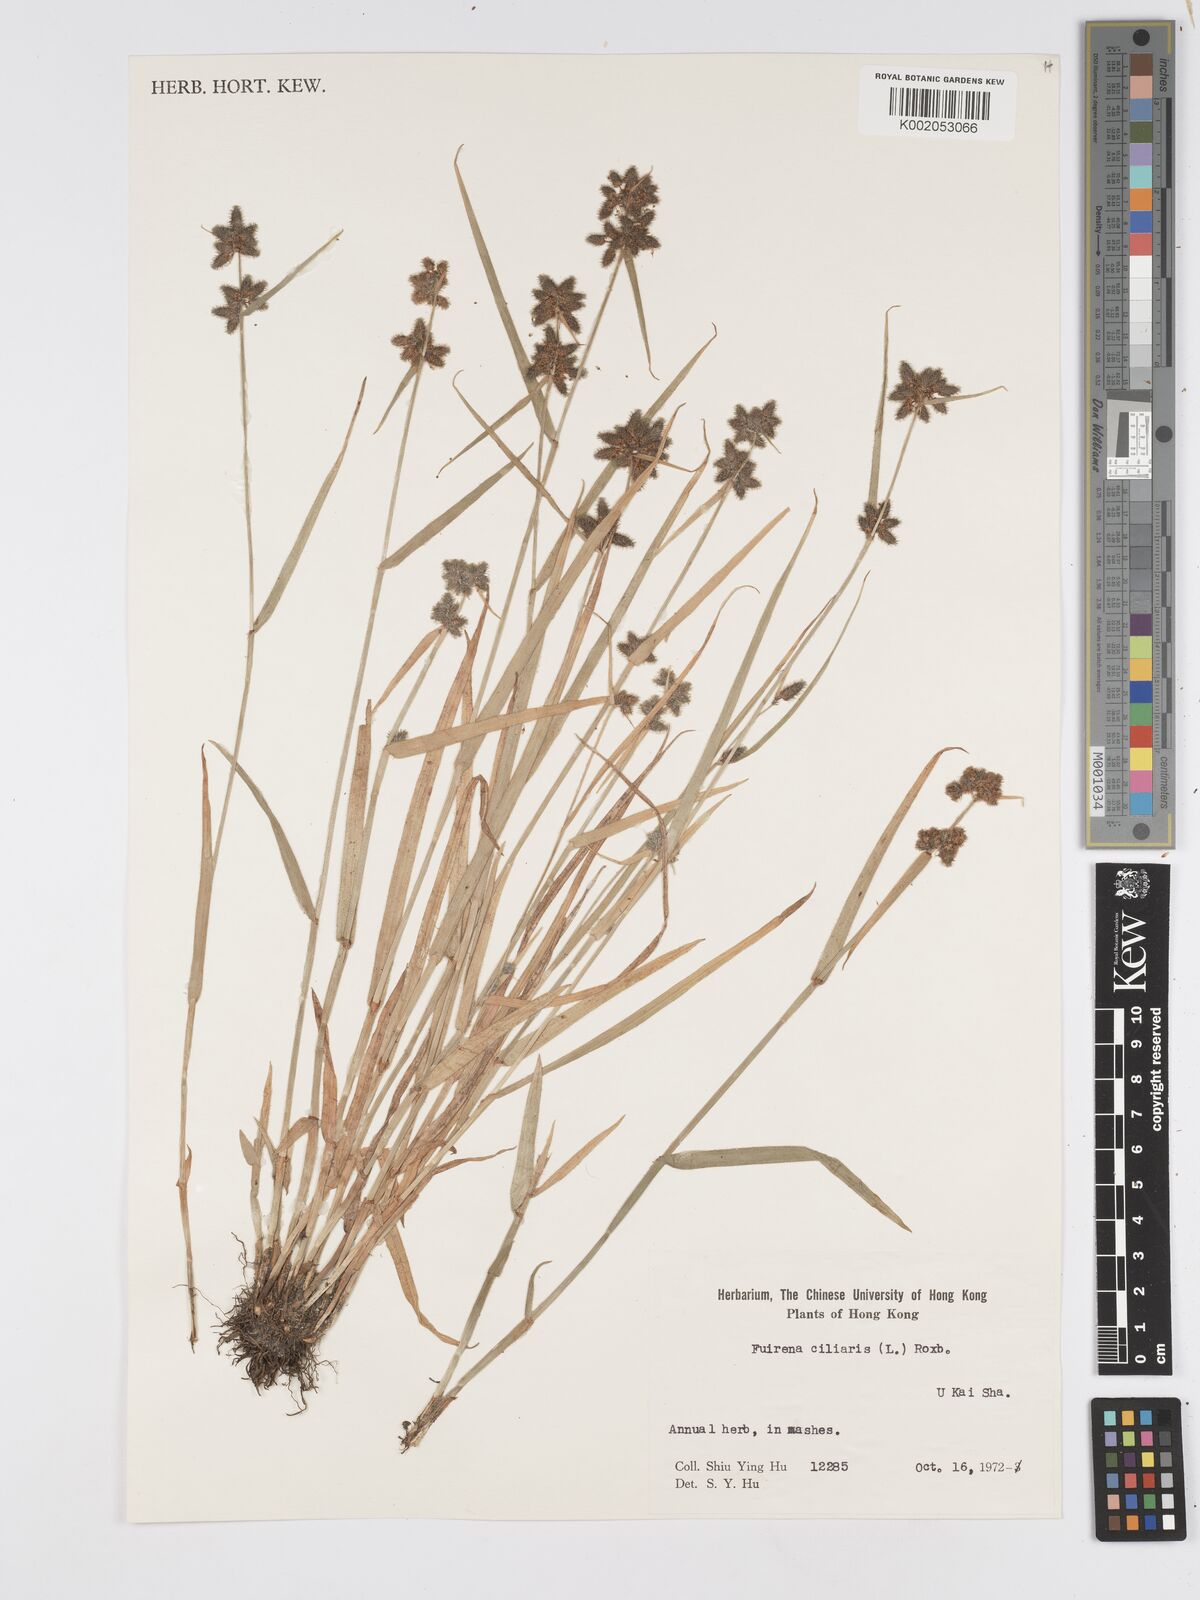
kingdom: Plantae
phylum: Tracheophyta
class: Liliopsida
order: Poales
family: Cyperaceae
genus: Fuirena
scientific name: Fuirena ciliaris
